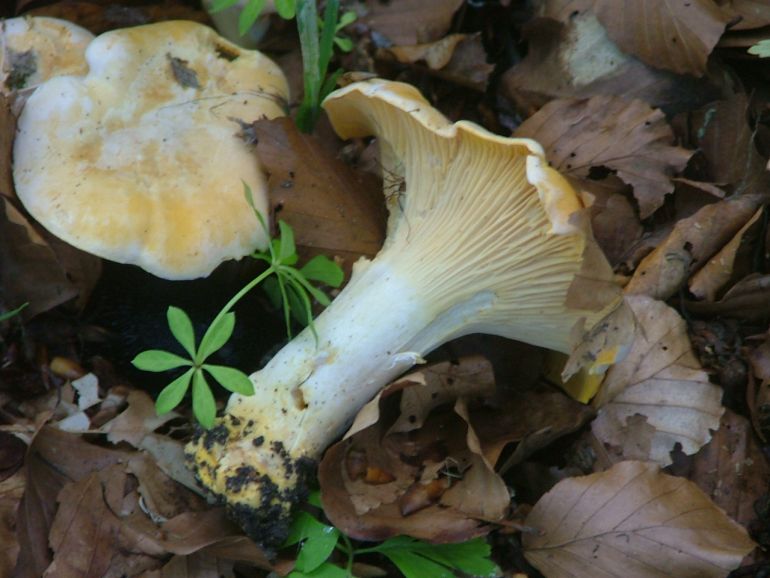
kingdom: Fungi
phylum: Basidiomycota
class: Agaricomycetes
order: Cantharellales
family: Hydnaceae
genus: Cantharellus
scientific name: Cantharellus pallens
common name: bleg kantarel
